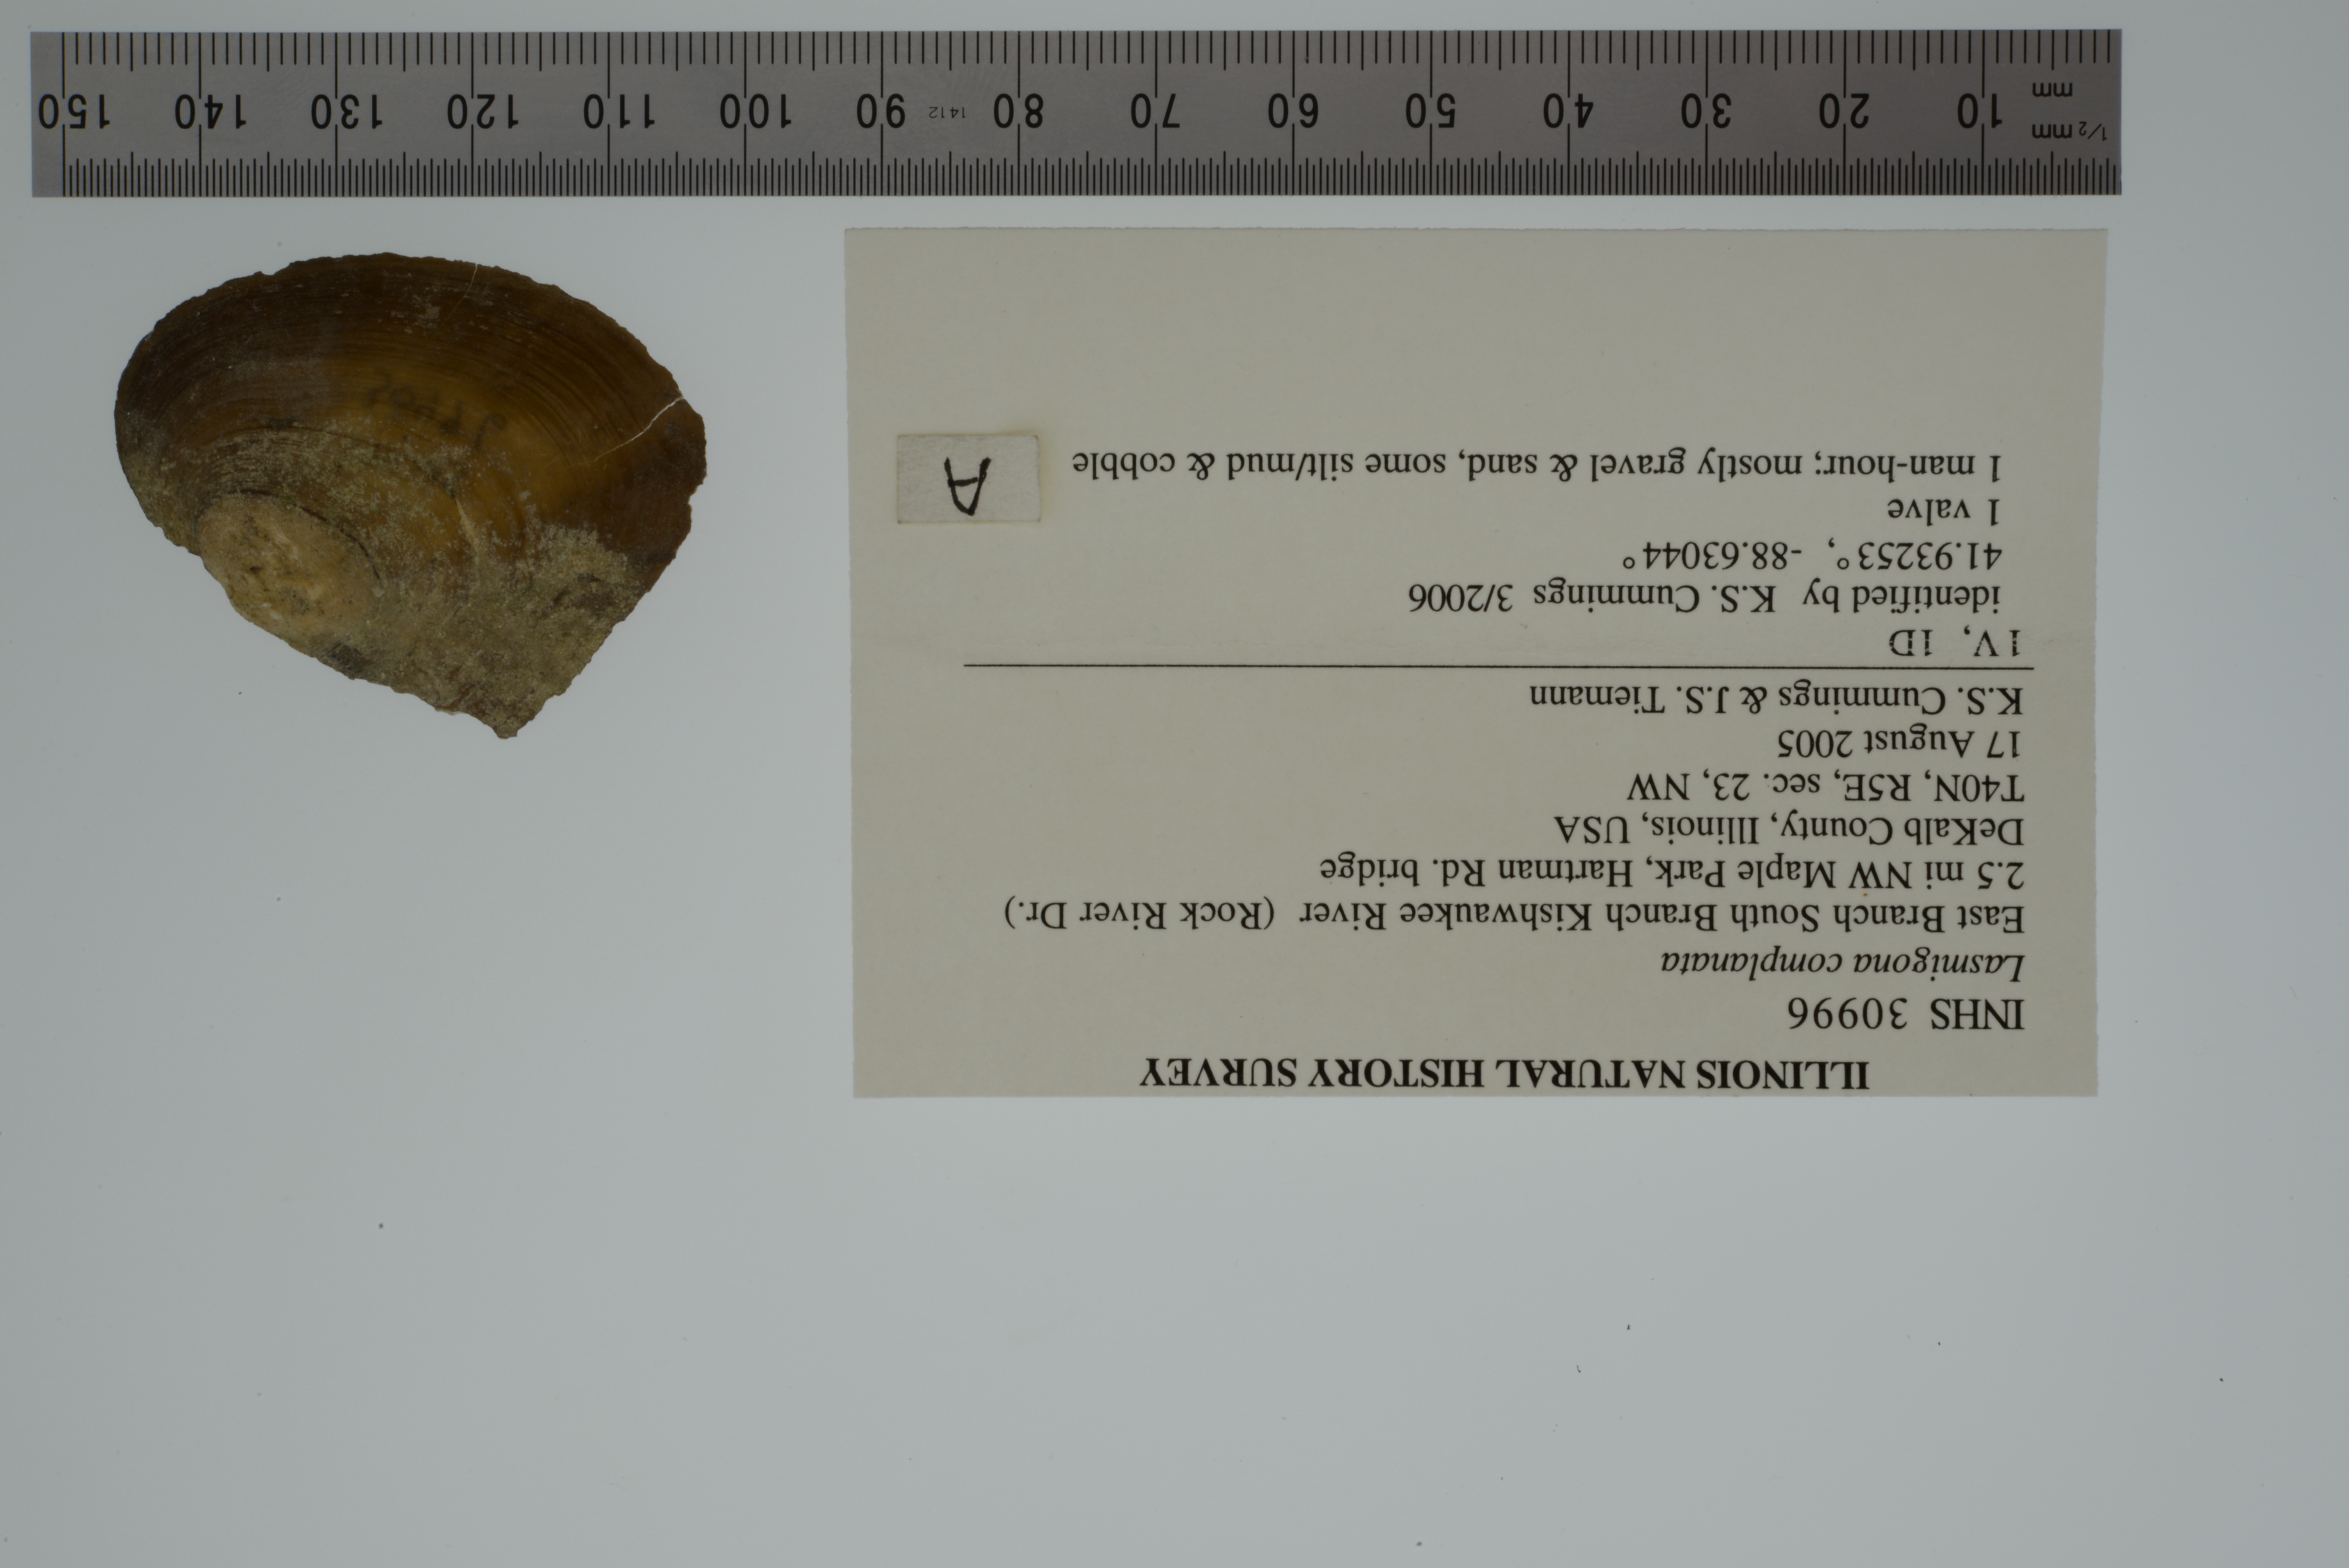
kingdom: Animalia
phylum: Mollusca
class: Bivalvia
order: Unionida
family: Unionidae
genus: Lasmigona
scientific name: Lasmigona complanata
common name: White heelsplitter
